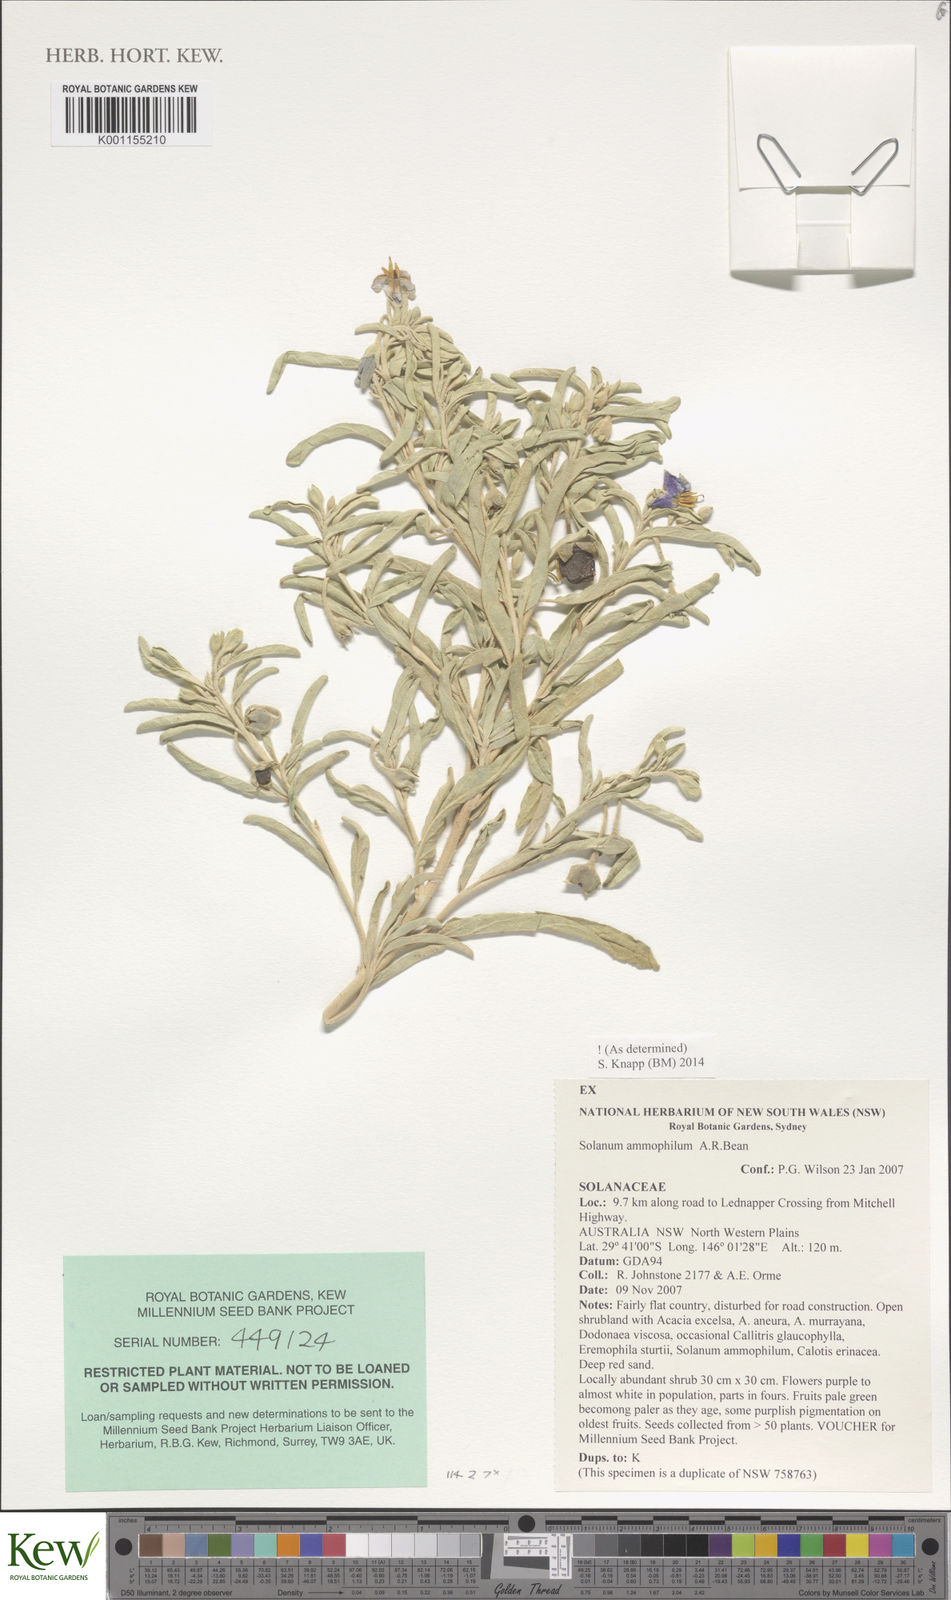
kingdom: Plantae
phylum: Tracheophyta
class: Magnoliopsida
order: Solanales
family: Solanaceae
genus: Solanum
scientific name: Solanum ammophilum
